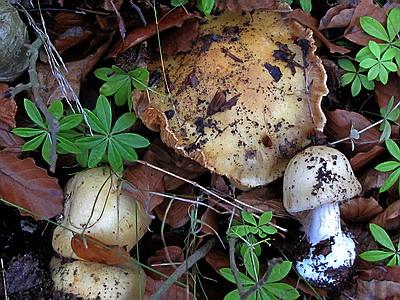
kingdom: Fungi
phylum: Basidiomycota
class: Agaricomycetes
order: Agaricales
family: Cortinariaceae
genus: Phlegmacium
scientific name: Phlegmacium xantho-ochraceum
